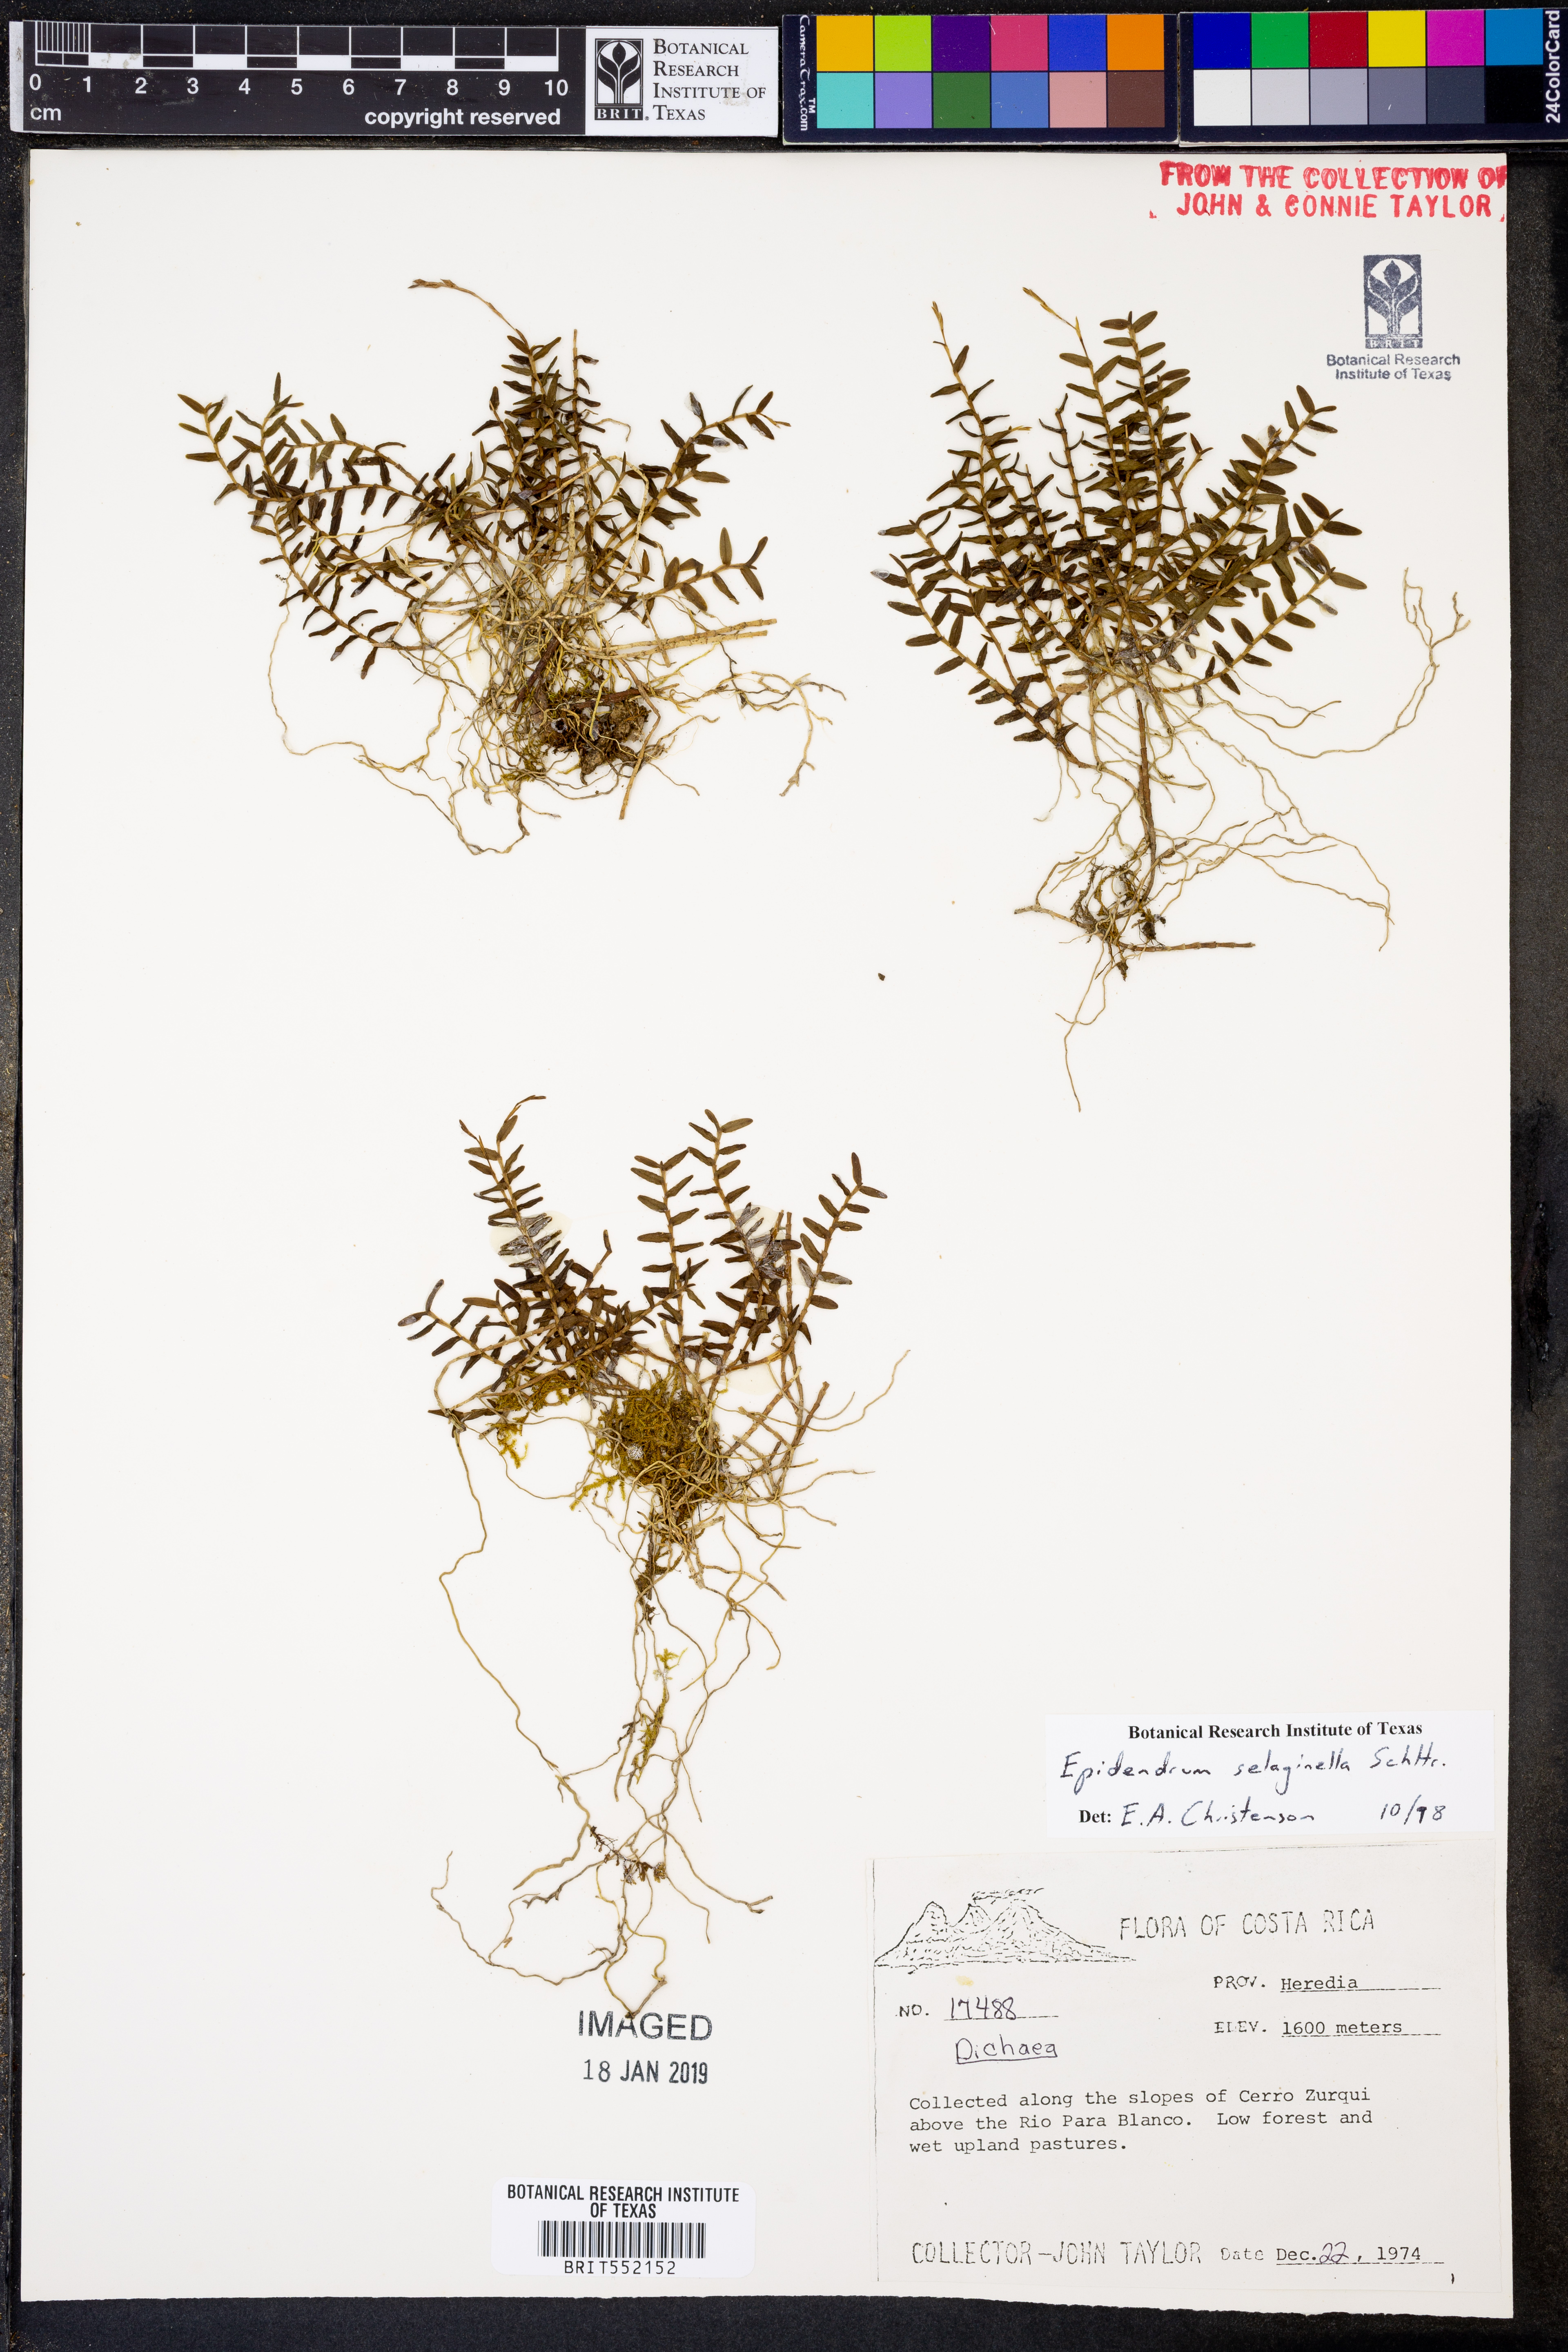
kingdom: Plantae
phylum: Tracheophyta
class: Liliopsida
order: Asparagales
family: Orchidaceae
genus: Epidendrum
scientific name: Epidendrum selaginella
